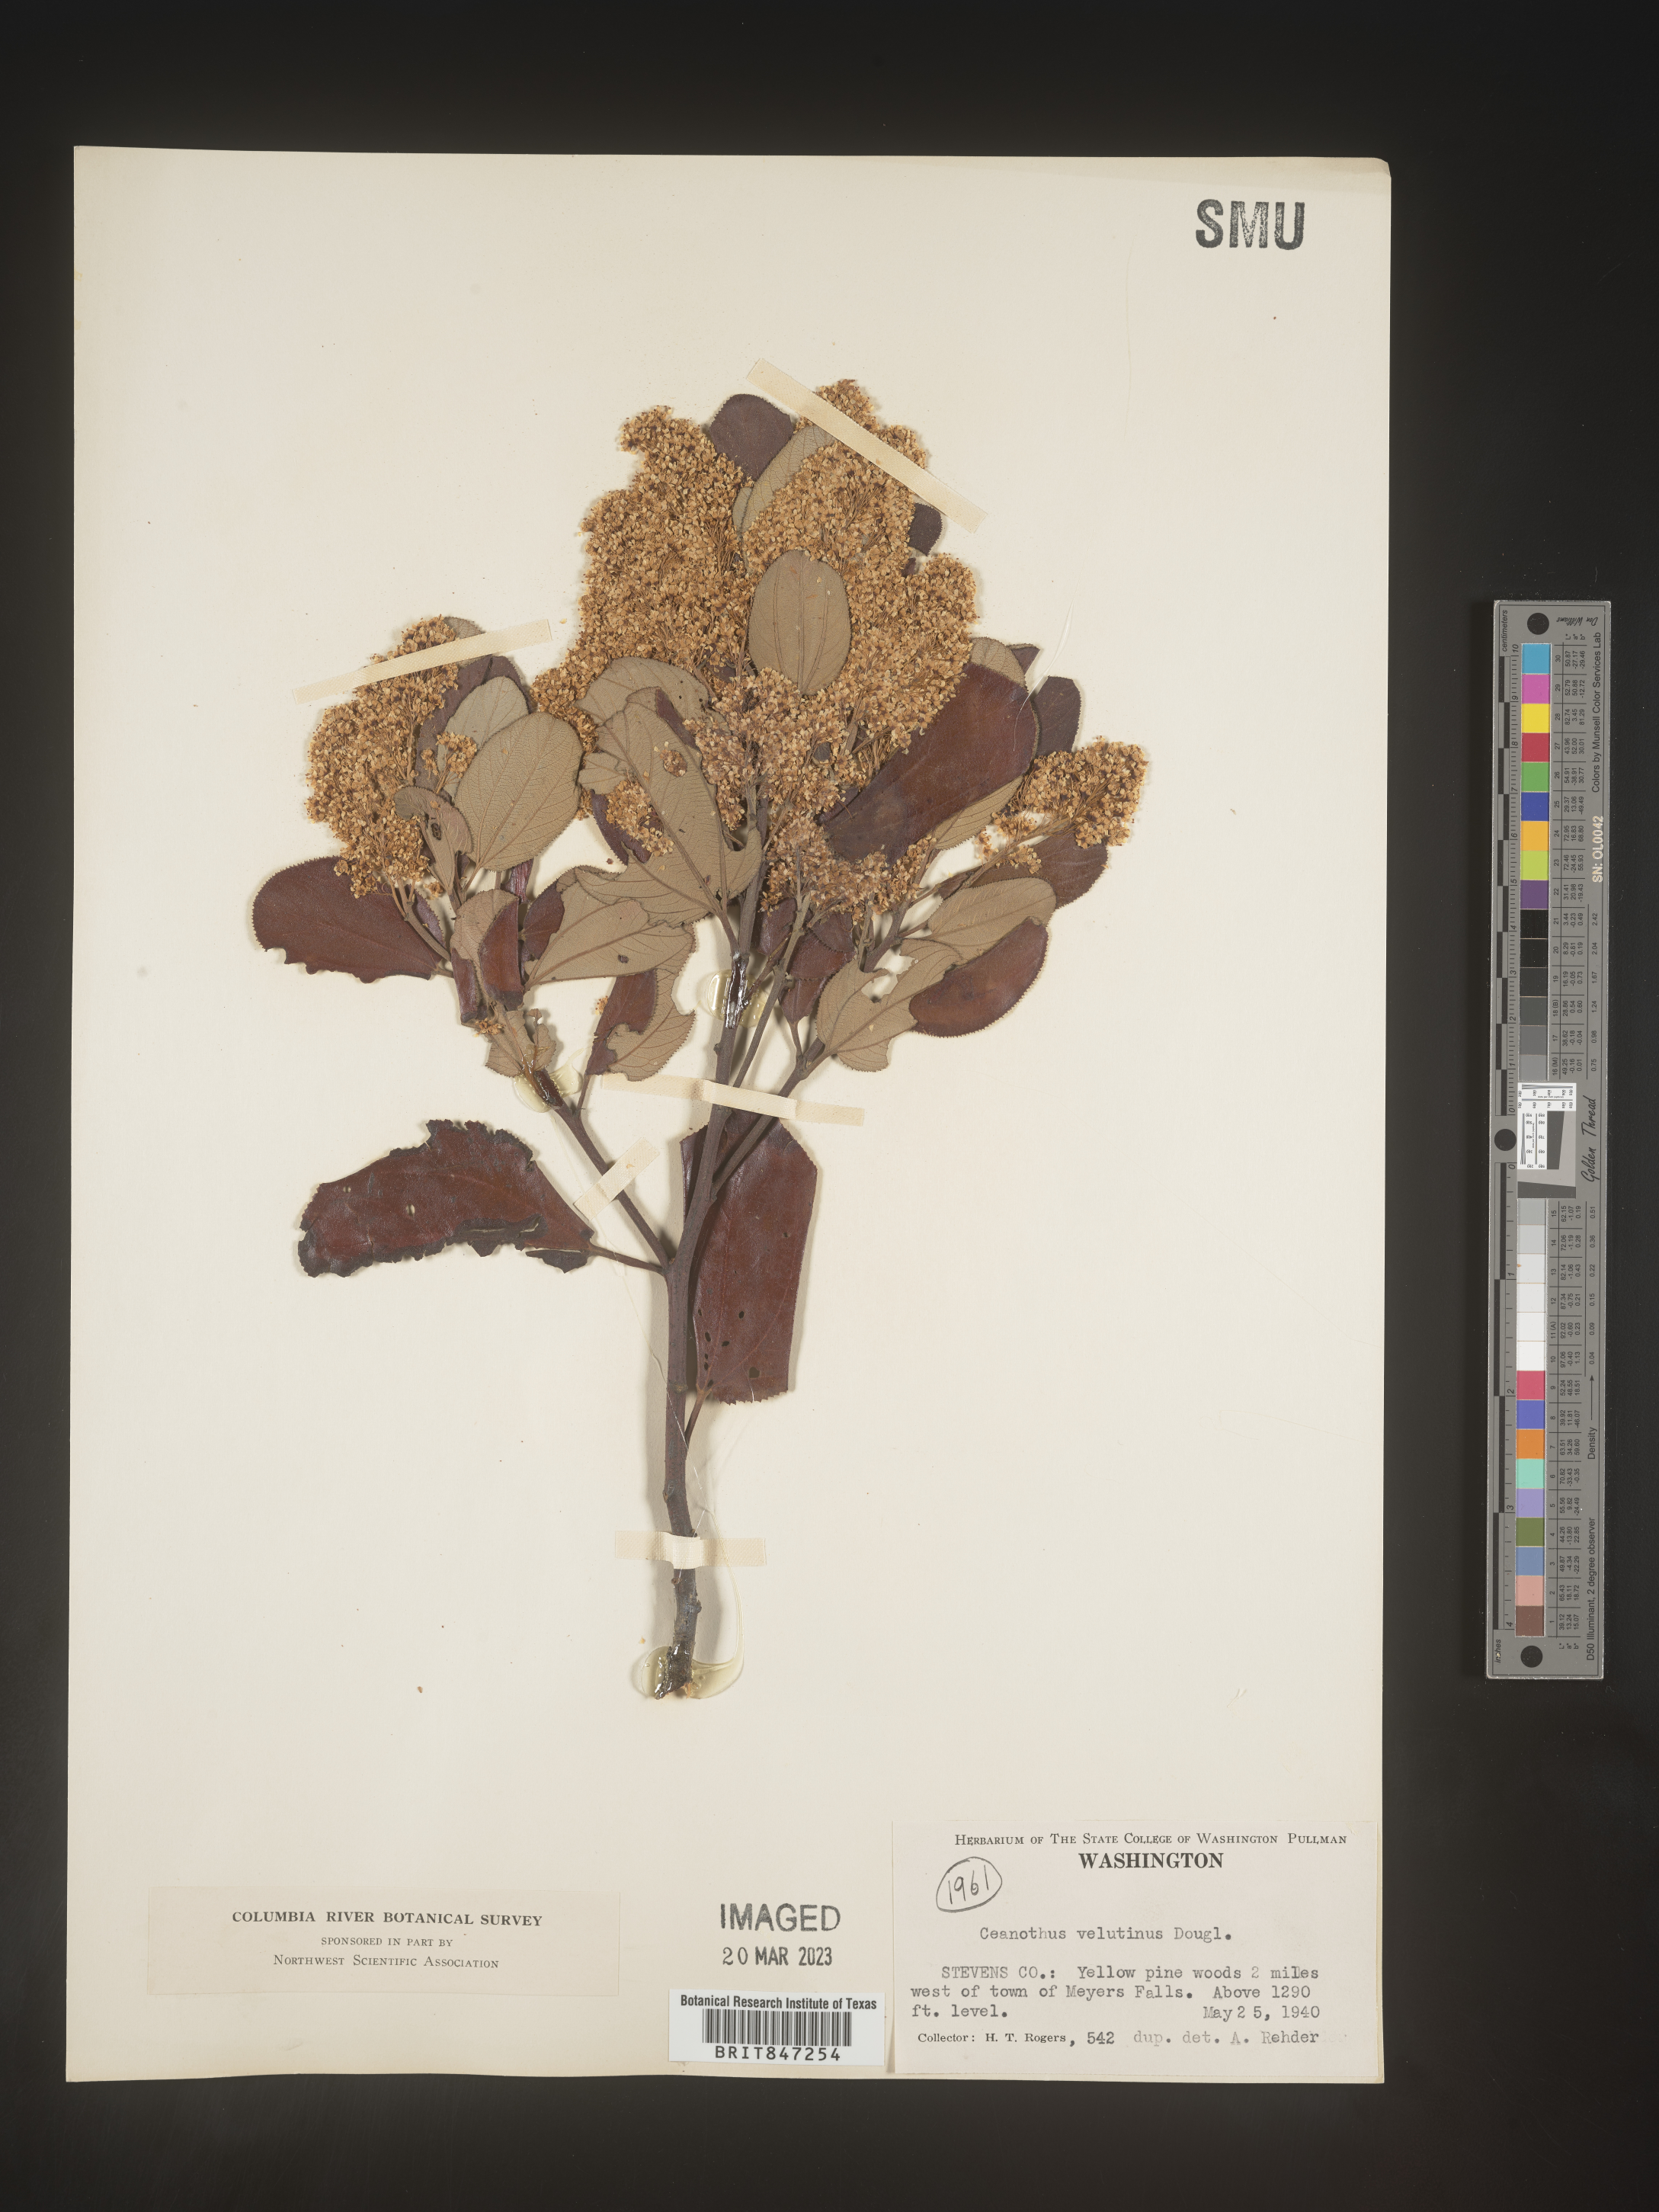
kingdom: Plantae
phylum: Tracheophyta
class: Magnoliopsida
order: Rosales
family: Rhamnaceae
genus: Ceanothus
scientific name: Ceanothus velutinus
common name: Snowbrush
